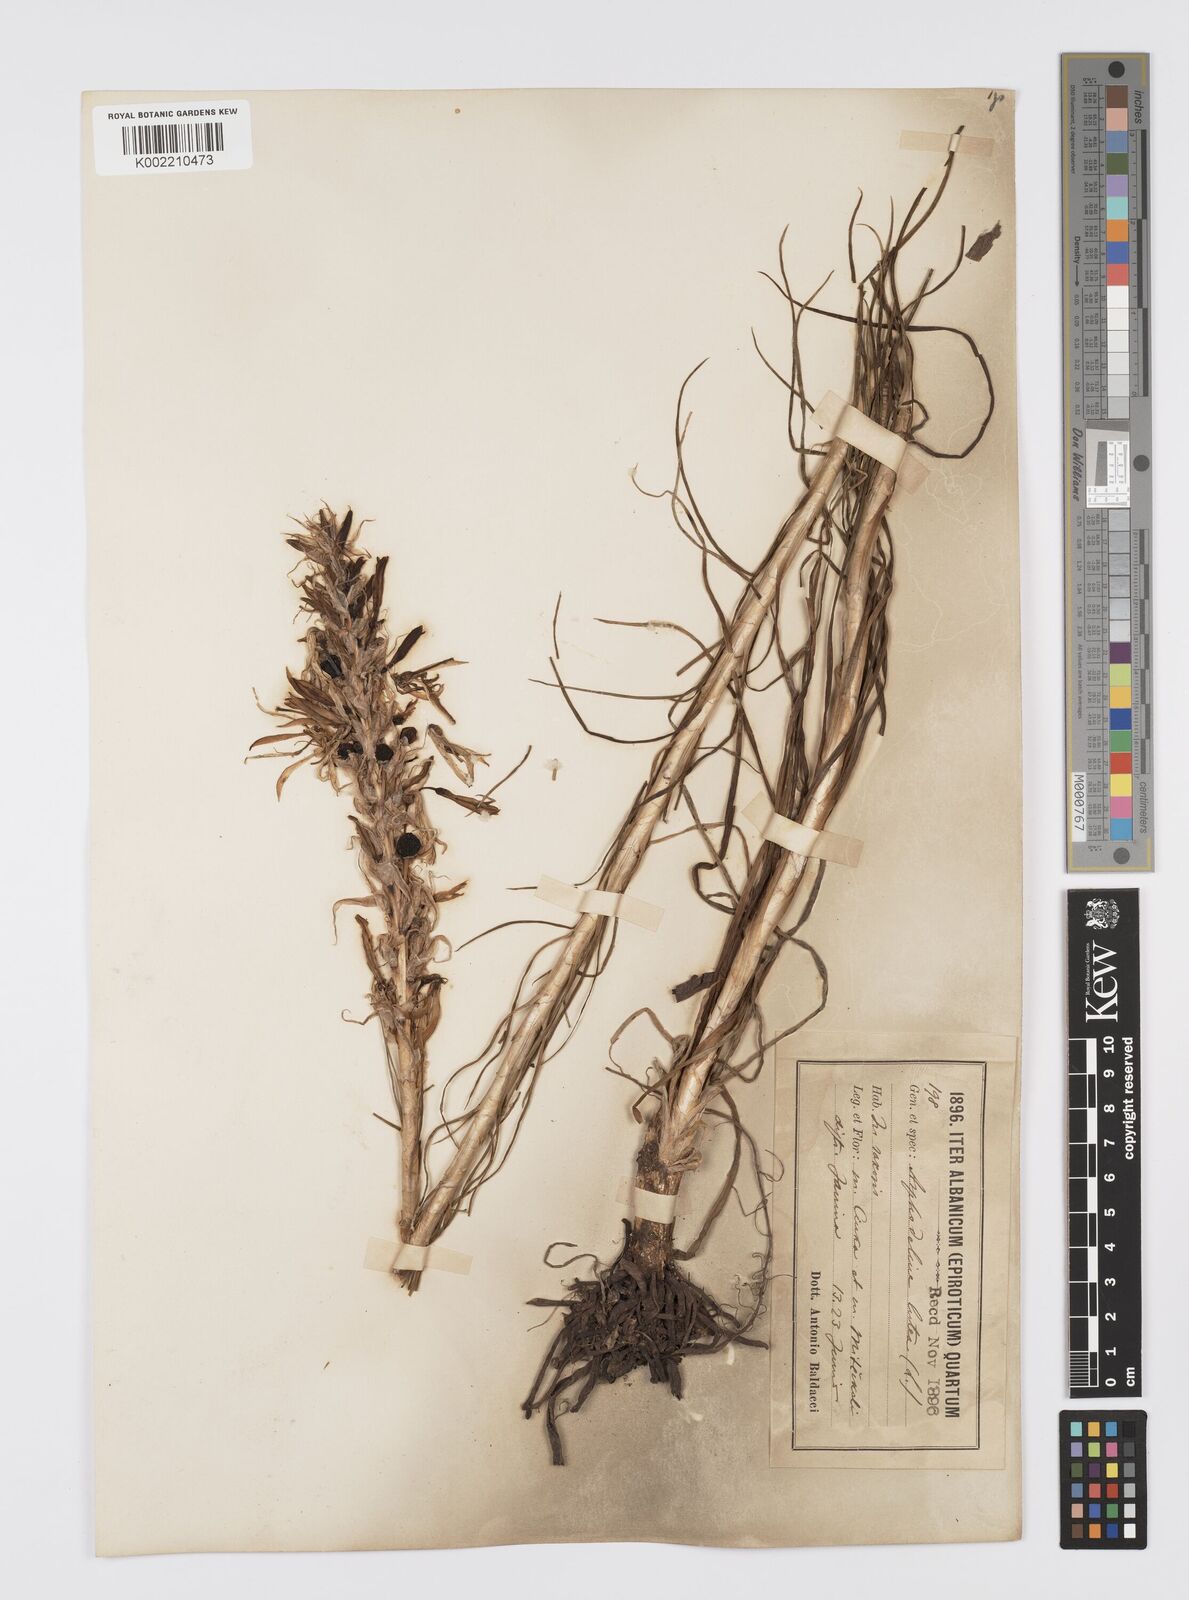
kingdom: Plantae
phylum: Tracheophyta
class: Liliopsida
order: Asparagales
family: Asphodelaceae
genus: Asphodeline
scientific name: Asphodeline lutea
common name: Yellow asphodel
